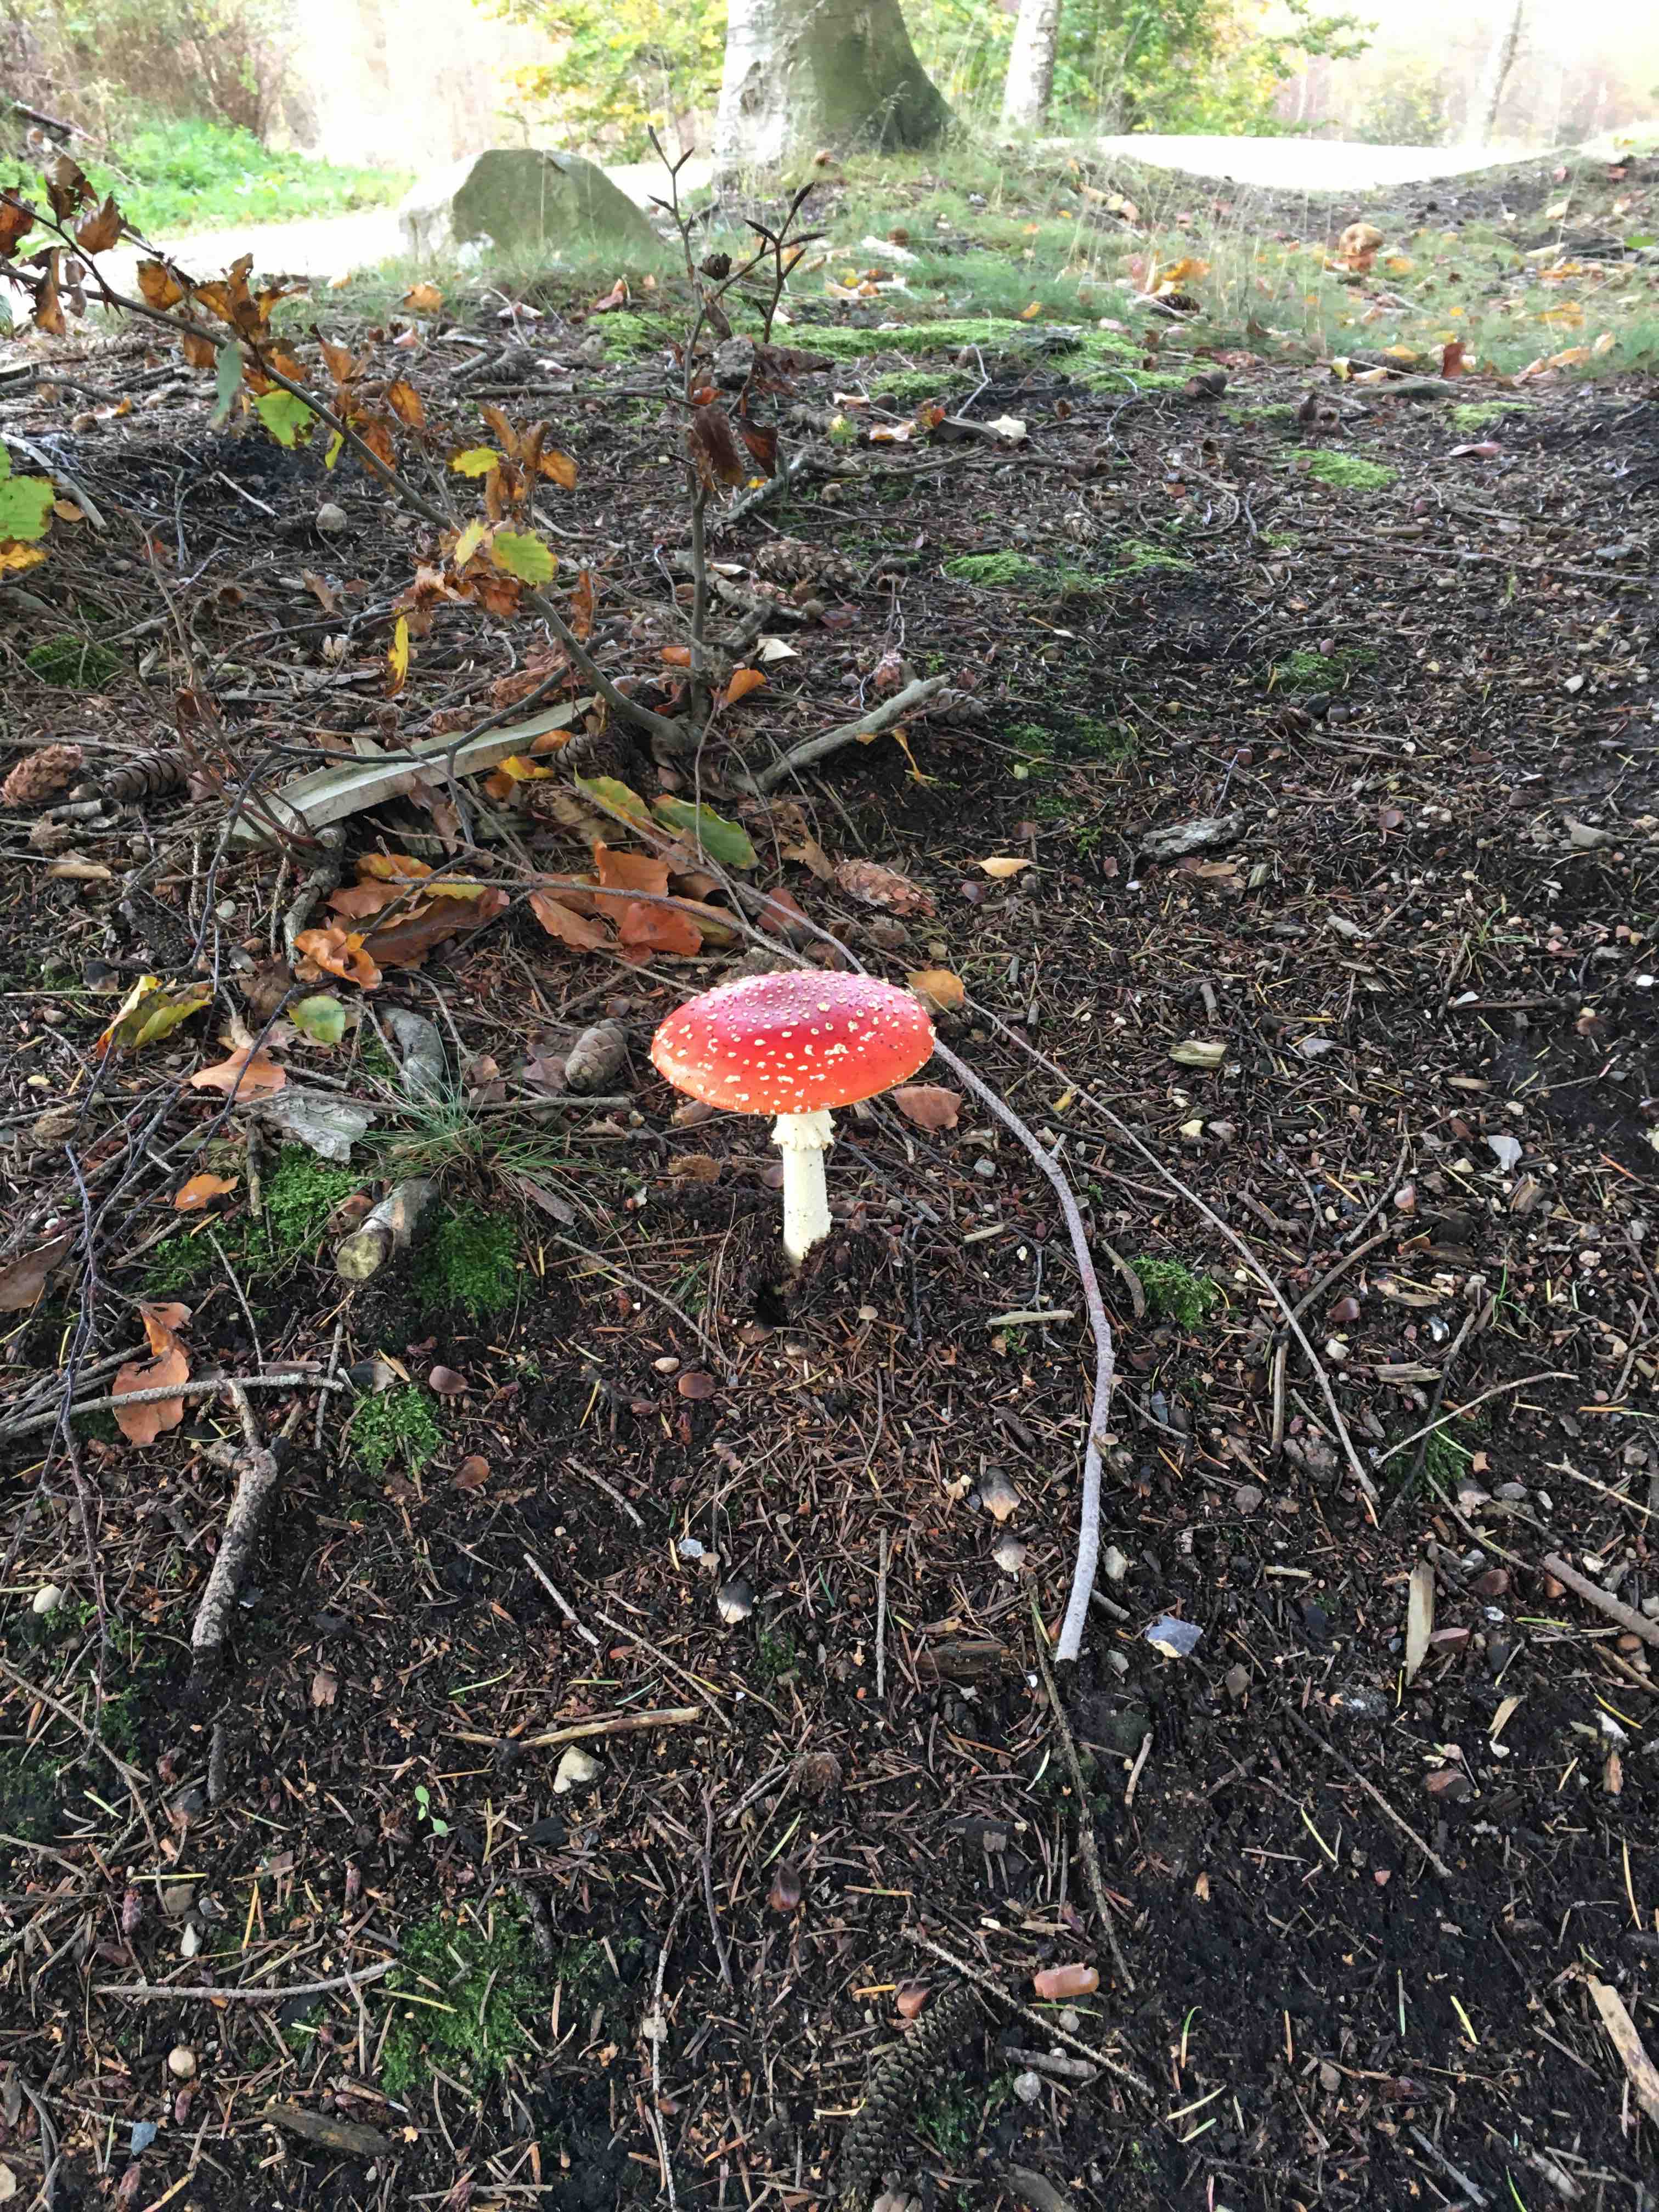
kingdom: Fungi
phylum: Basidiomycota
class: Agaricomycetes
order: Agaricales
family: Amanitaceae
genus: Amanita
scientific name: Amanita muscaria
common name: rød fluesvamp
